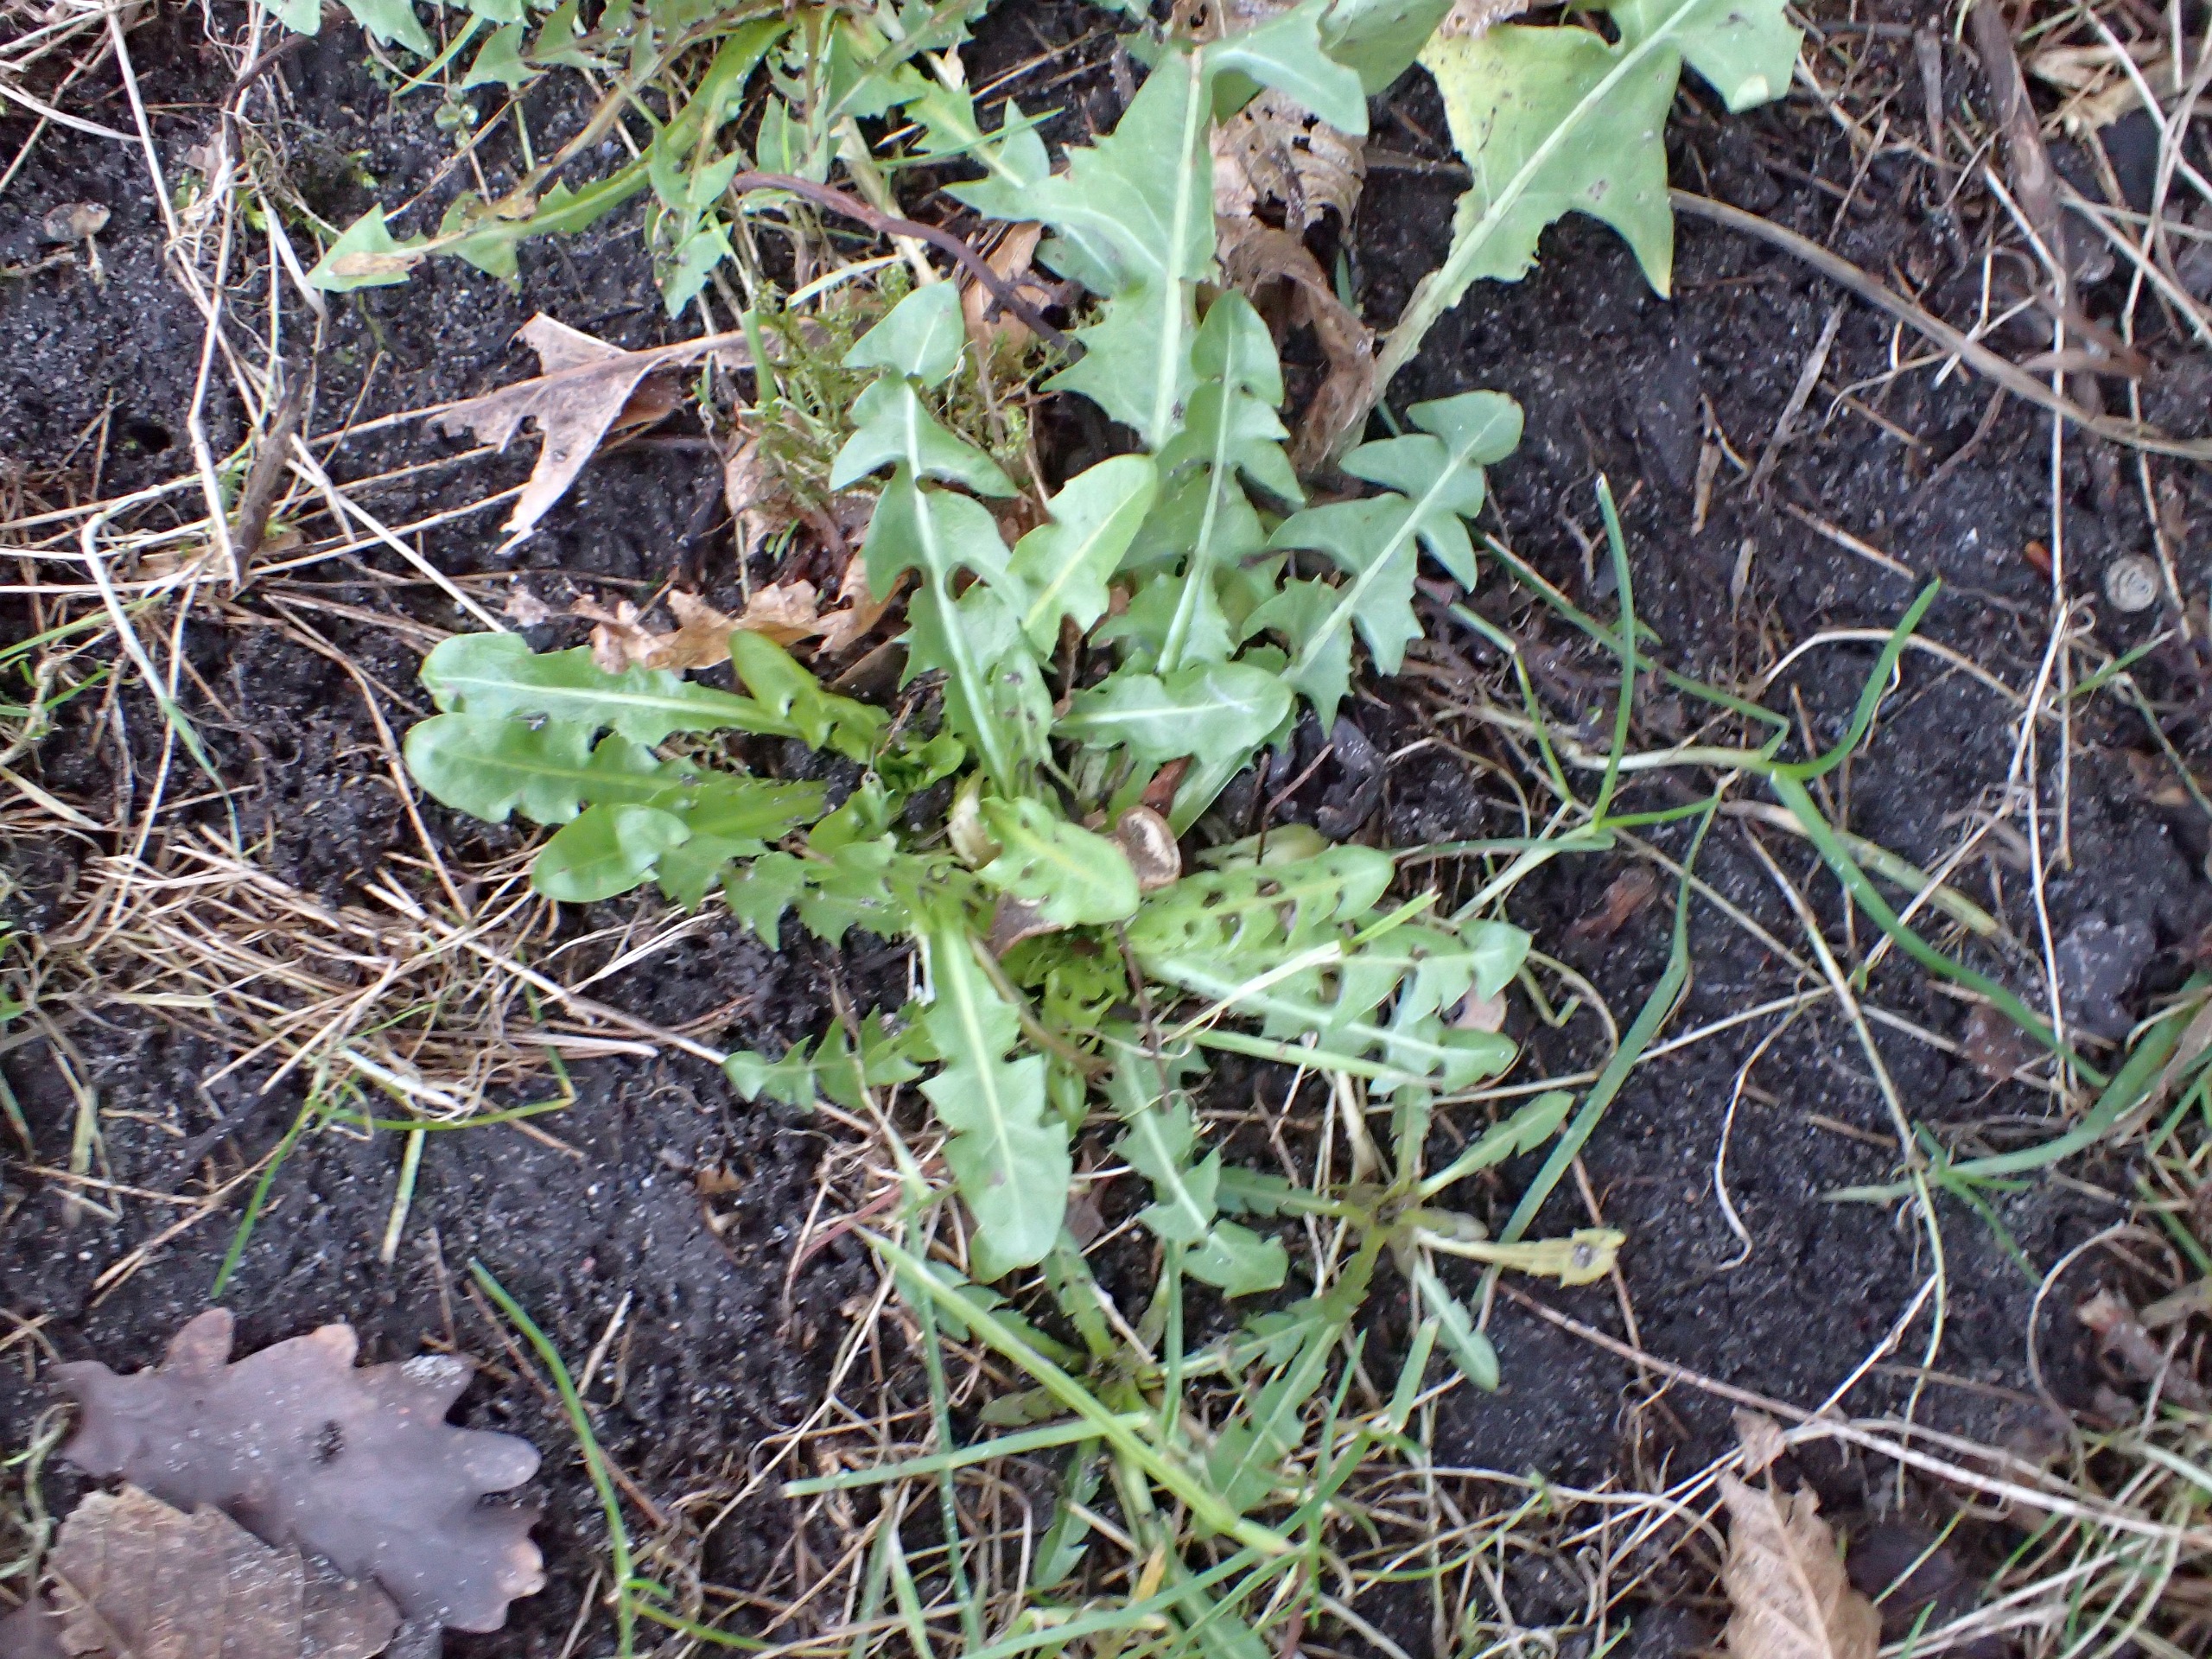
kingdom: Plantae
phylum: Tracheophyta
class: Magnoliopsida
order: Asterales
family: Asteraceae
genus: Taraxacum
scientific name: Taraxacum
